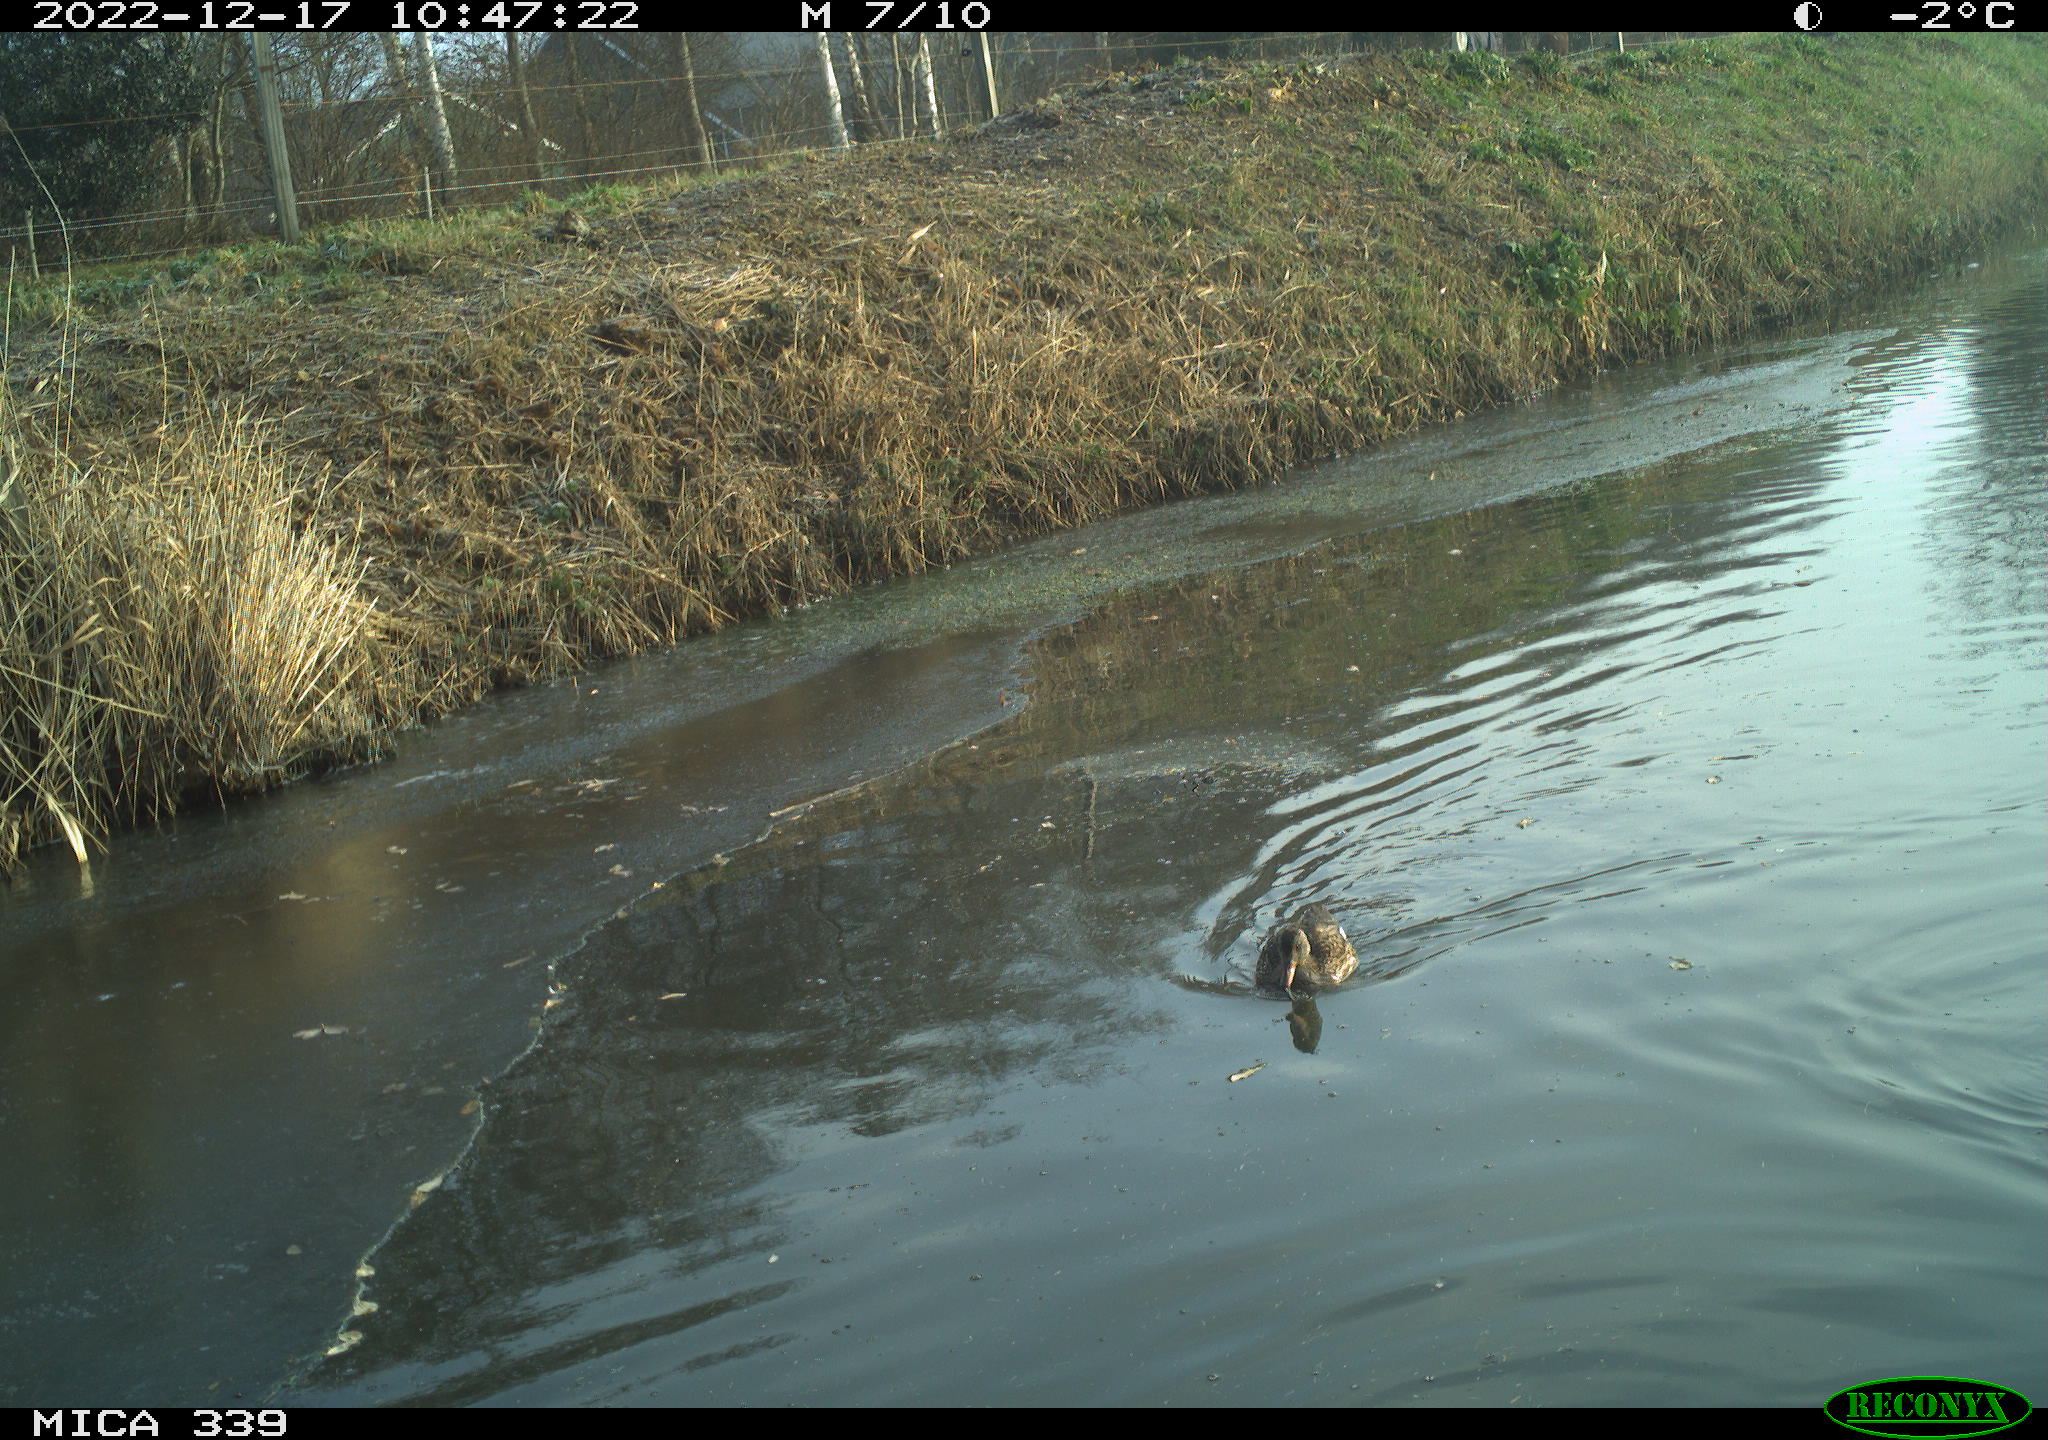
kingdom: Animalia
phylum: Chordata
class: Aves
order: Anseriformes
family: Anatidae
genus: Anas
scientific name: Anas
